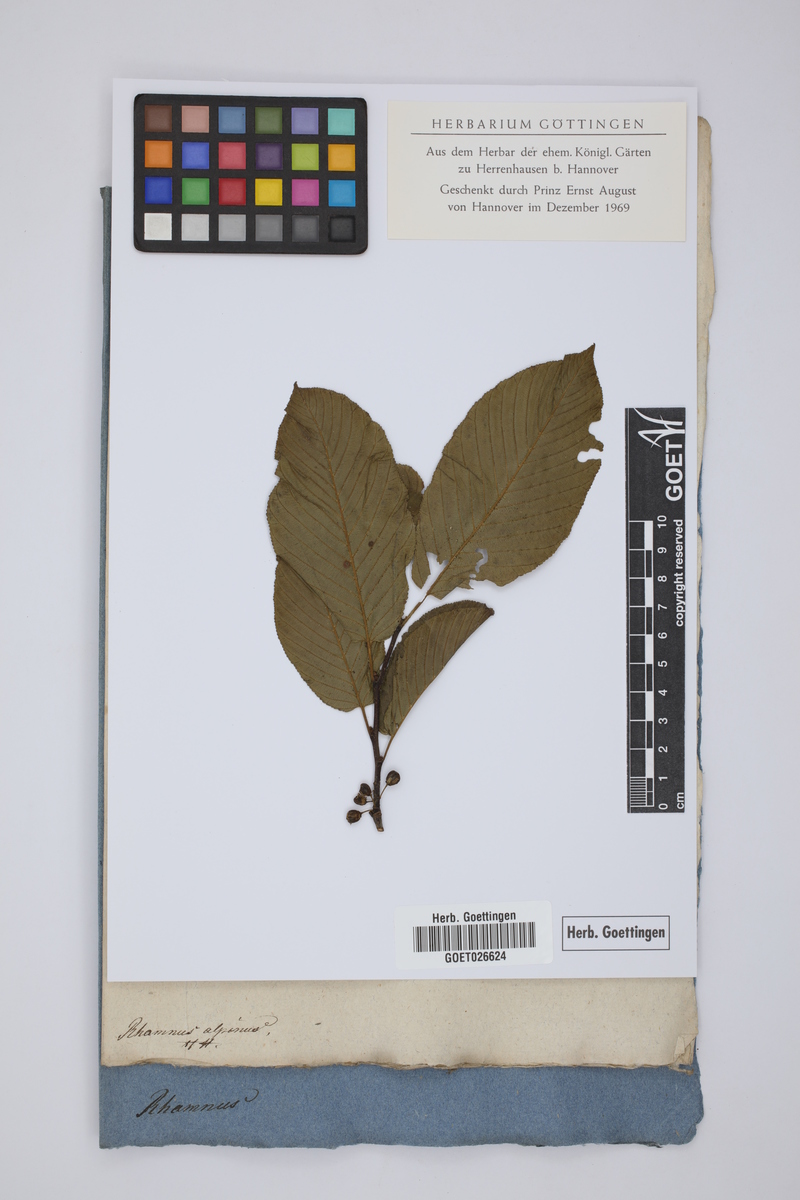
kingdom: Plantae
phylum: Tracheophyta
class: Magnoliopsida
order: Rosales
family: Rhamnaceae
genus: Atadinus
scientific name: Atadinus alpinus
